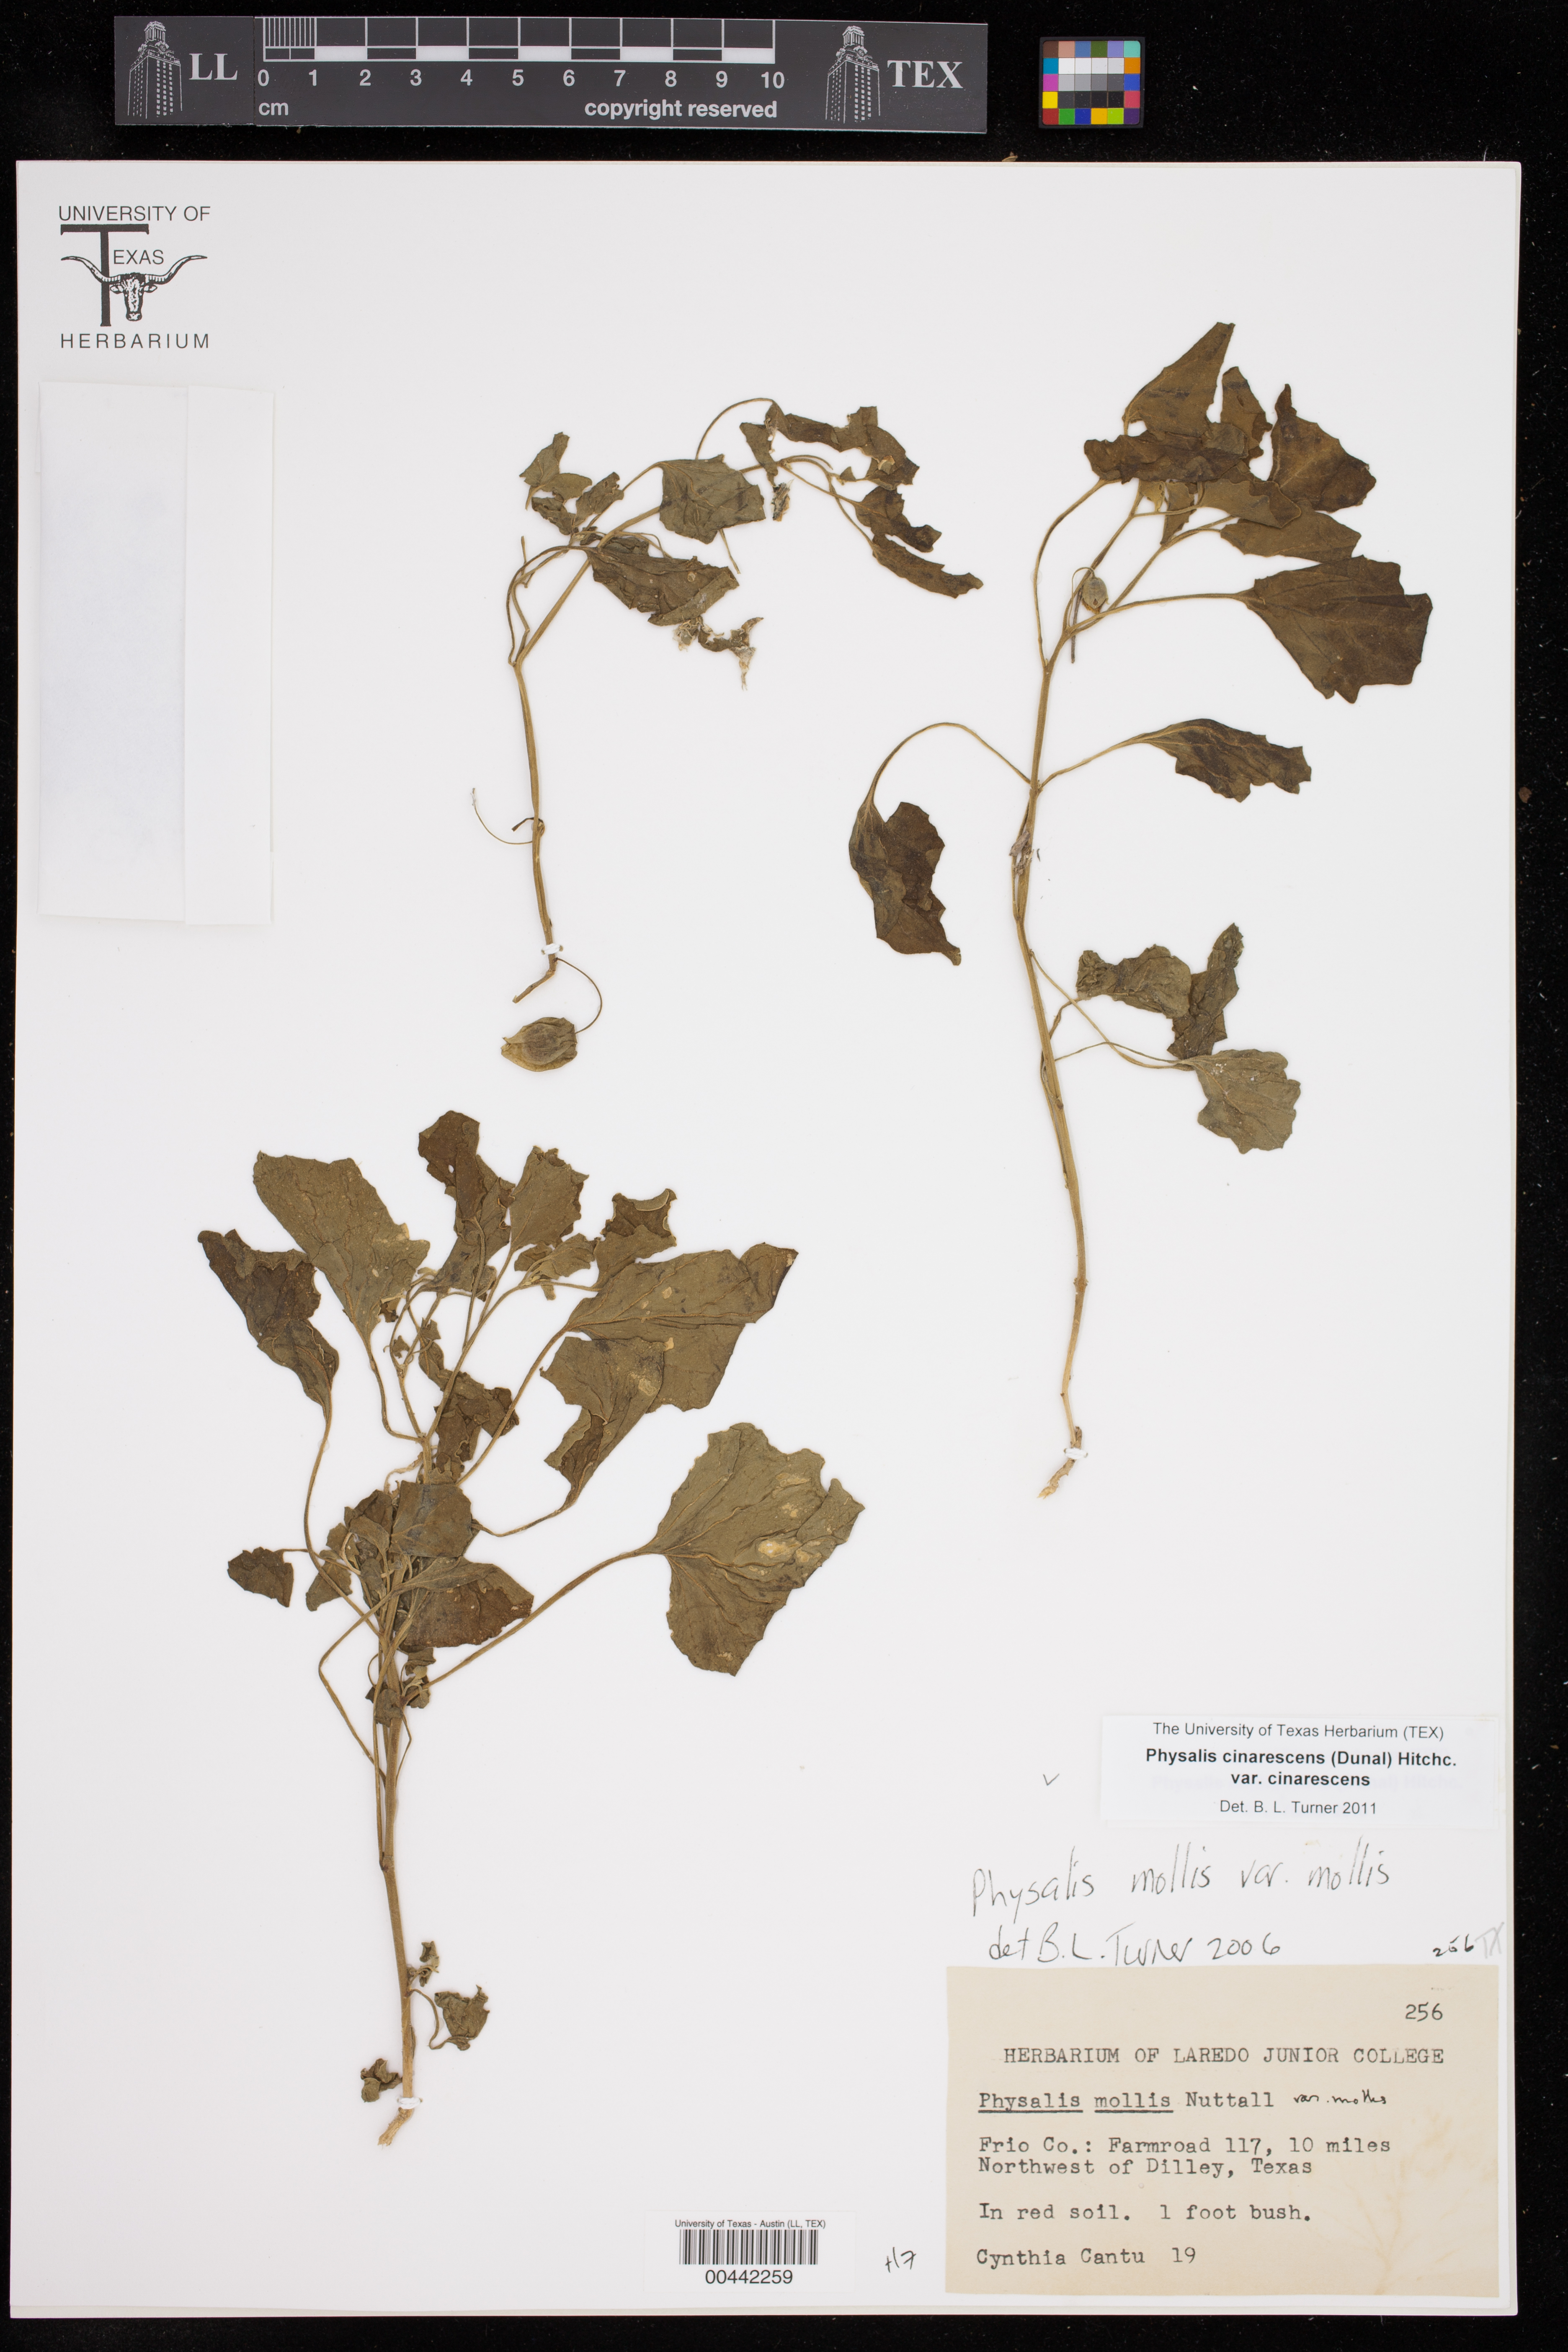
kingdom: Plantae
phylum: Tracheophyta
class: Magnoliopsida
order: Solanales
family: Solanaceae
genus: Physalis
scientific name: Physalis cinerascens
